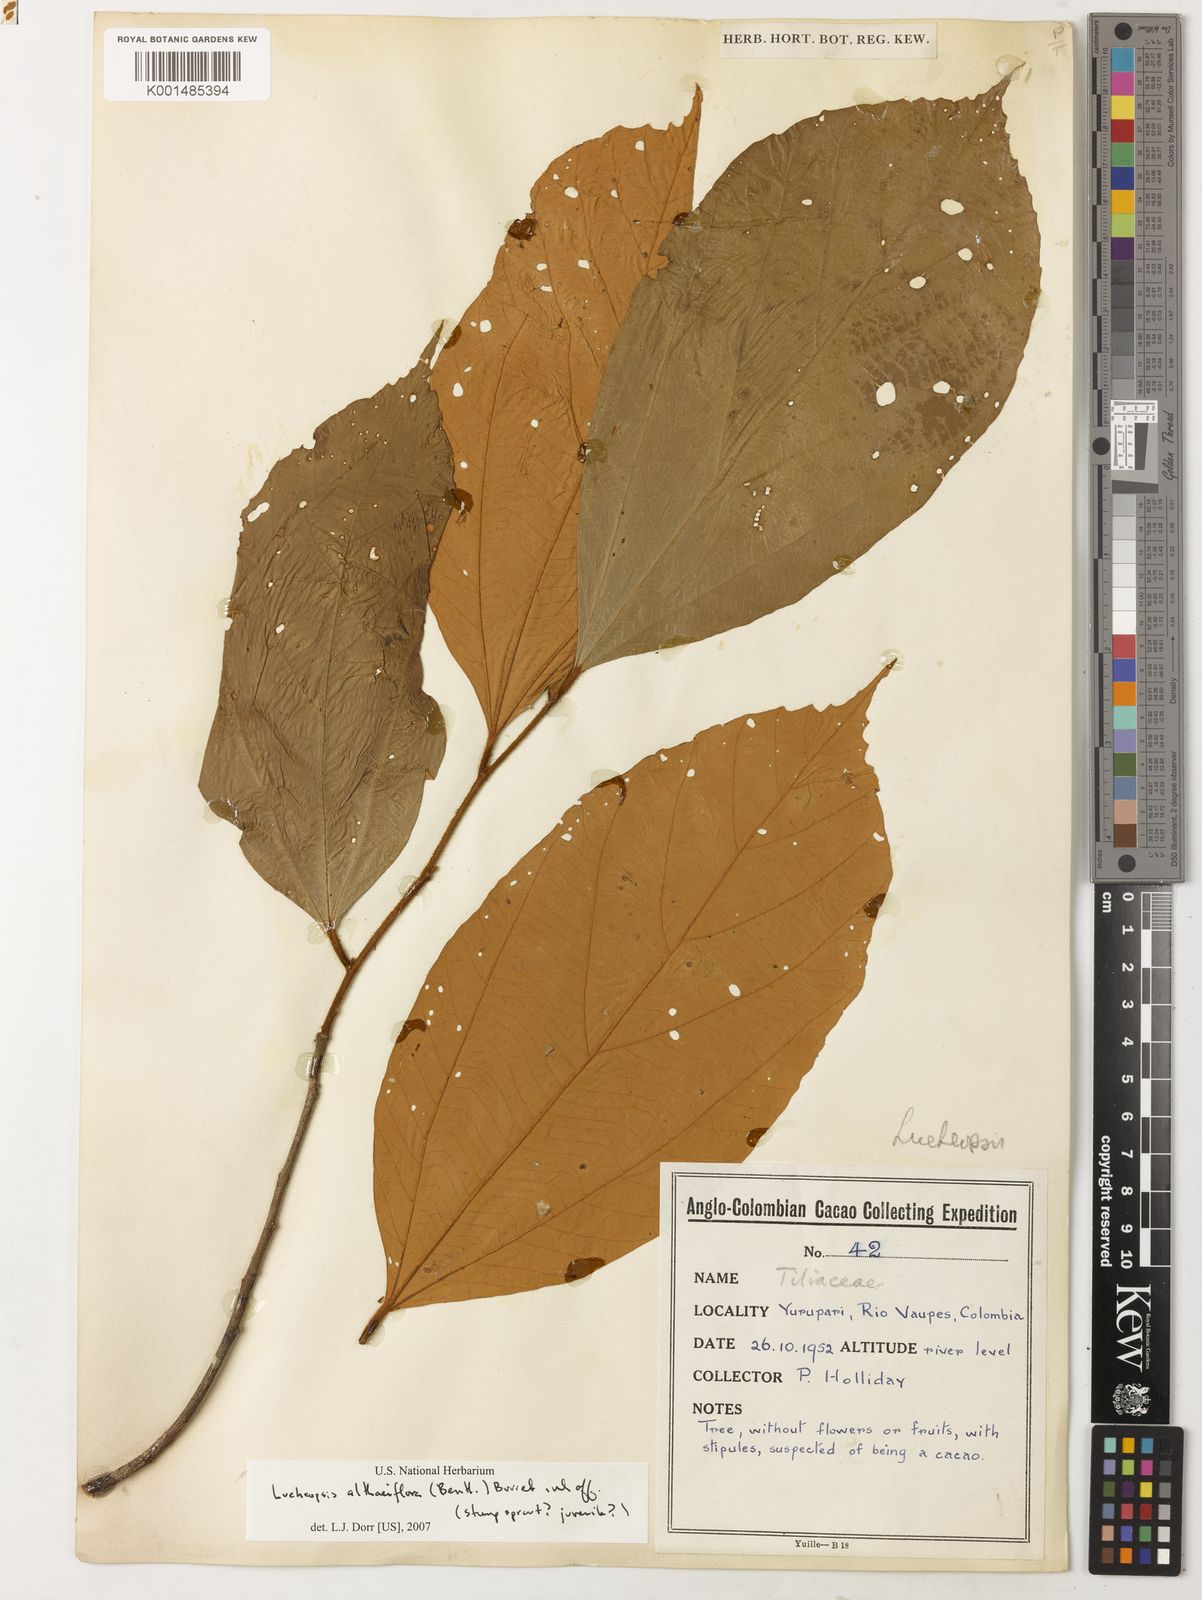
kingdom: Plantae
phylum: Tracheophyta
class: Magnoliopsida
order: Malvales
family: Malvaceae
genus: Lueheopsis
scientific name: Lueheopsis althaeiflora
